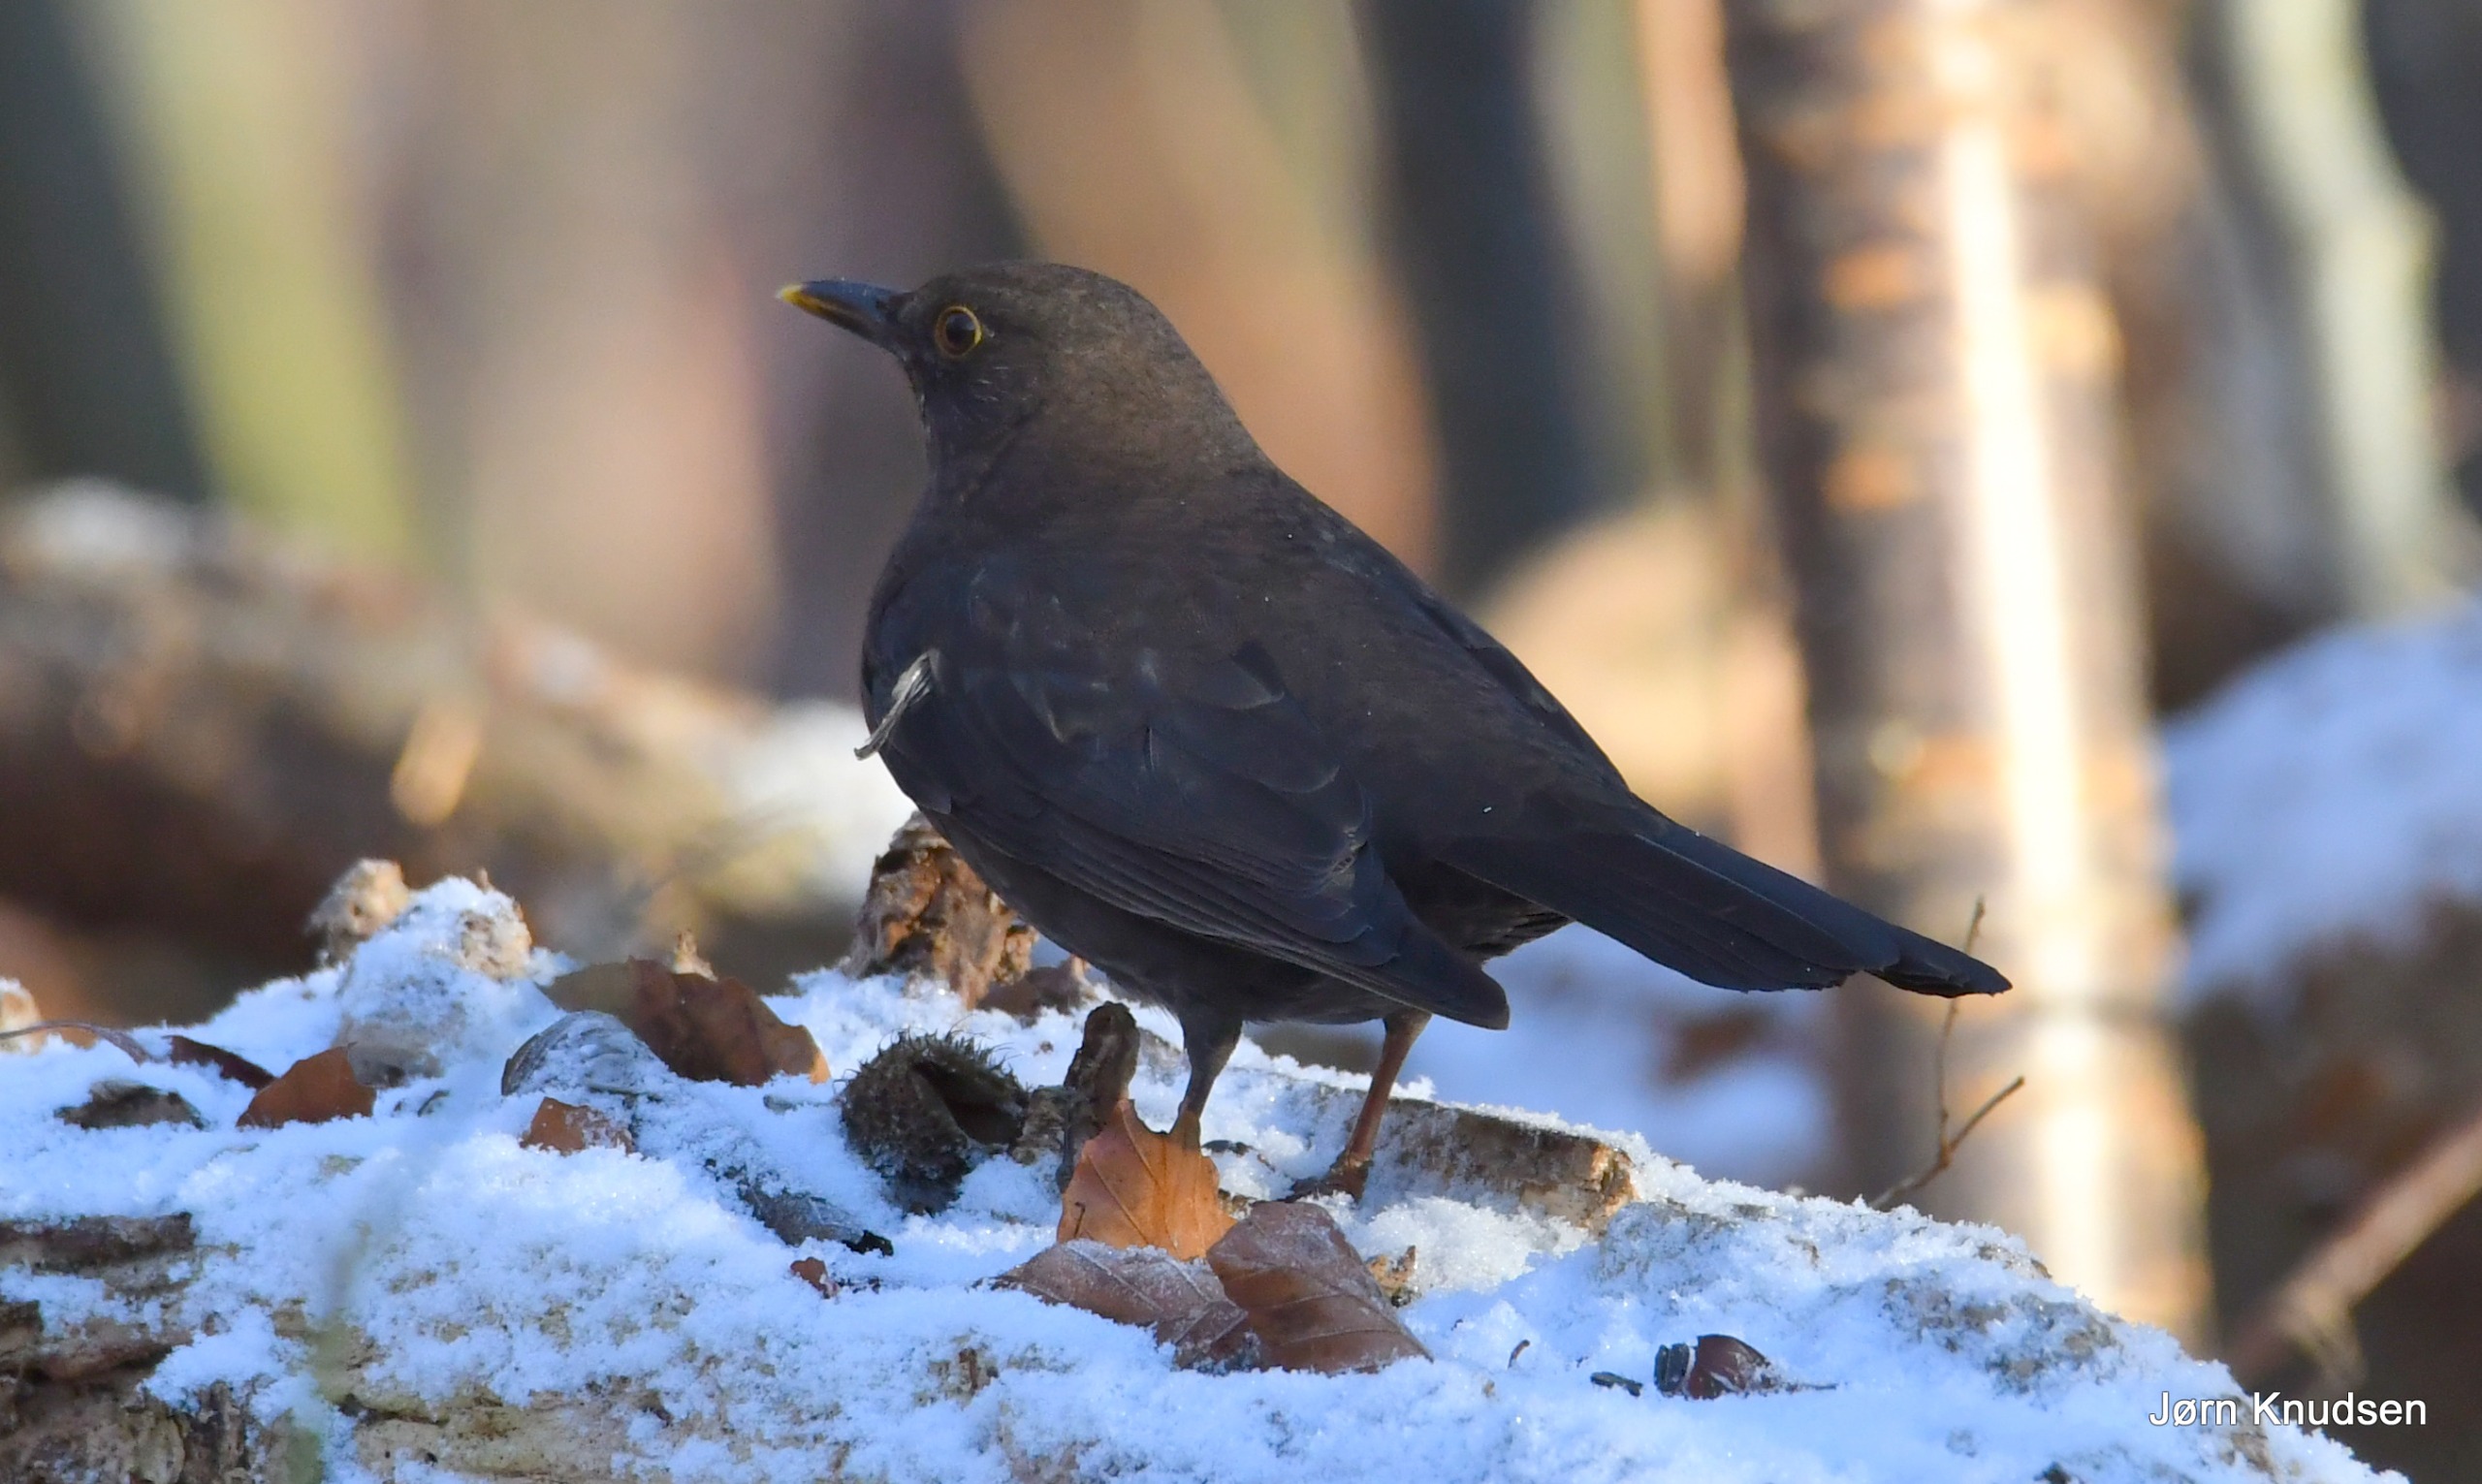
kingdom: Animalia
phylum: Chordata
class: Aves
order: Passeriformes
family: Turdidae
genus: Turdus
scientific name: Turdus merula
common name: Solsort
